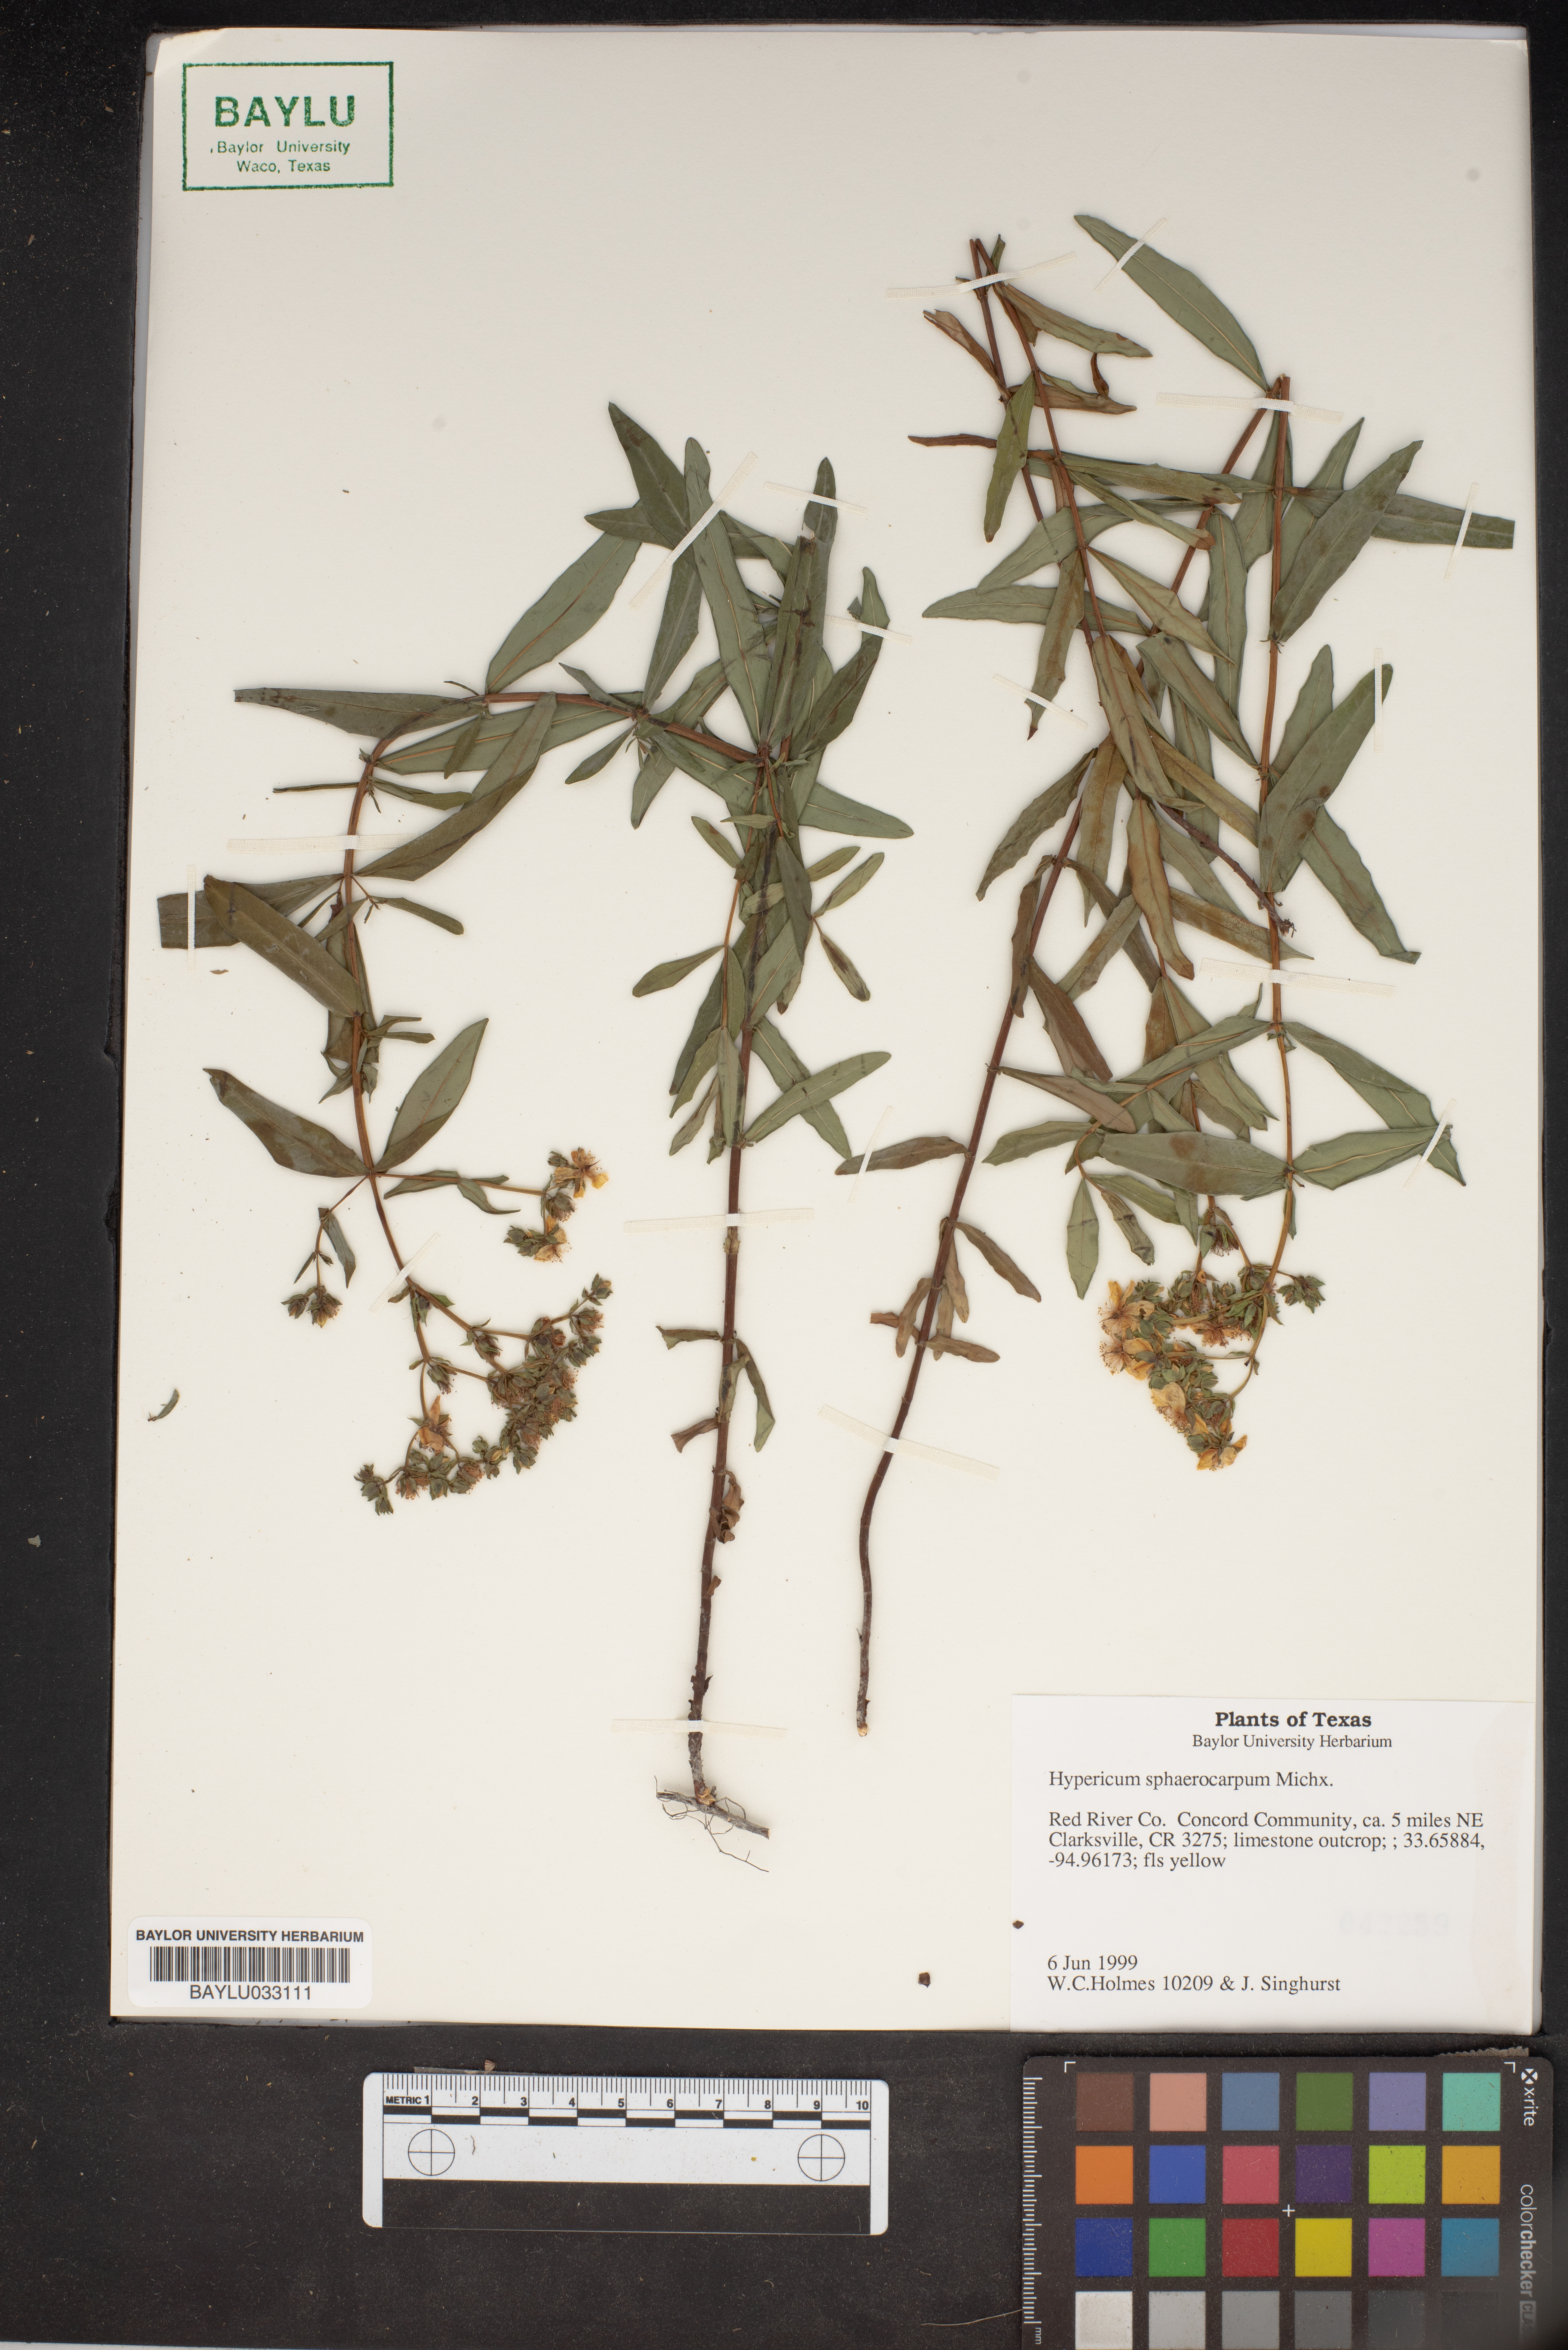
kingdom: Plantae
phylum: Tracheophyta
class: Magnoliopsida
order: Malpighiales
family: Hypericaceae
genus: Hypericum
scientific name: Hypericum sphaerocarpum
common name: Round-fruited st. john's-wort
